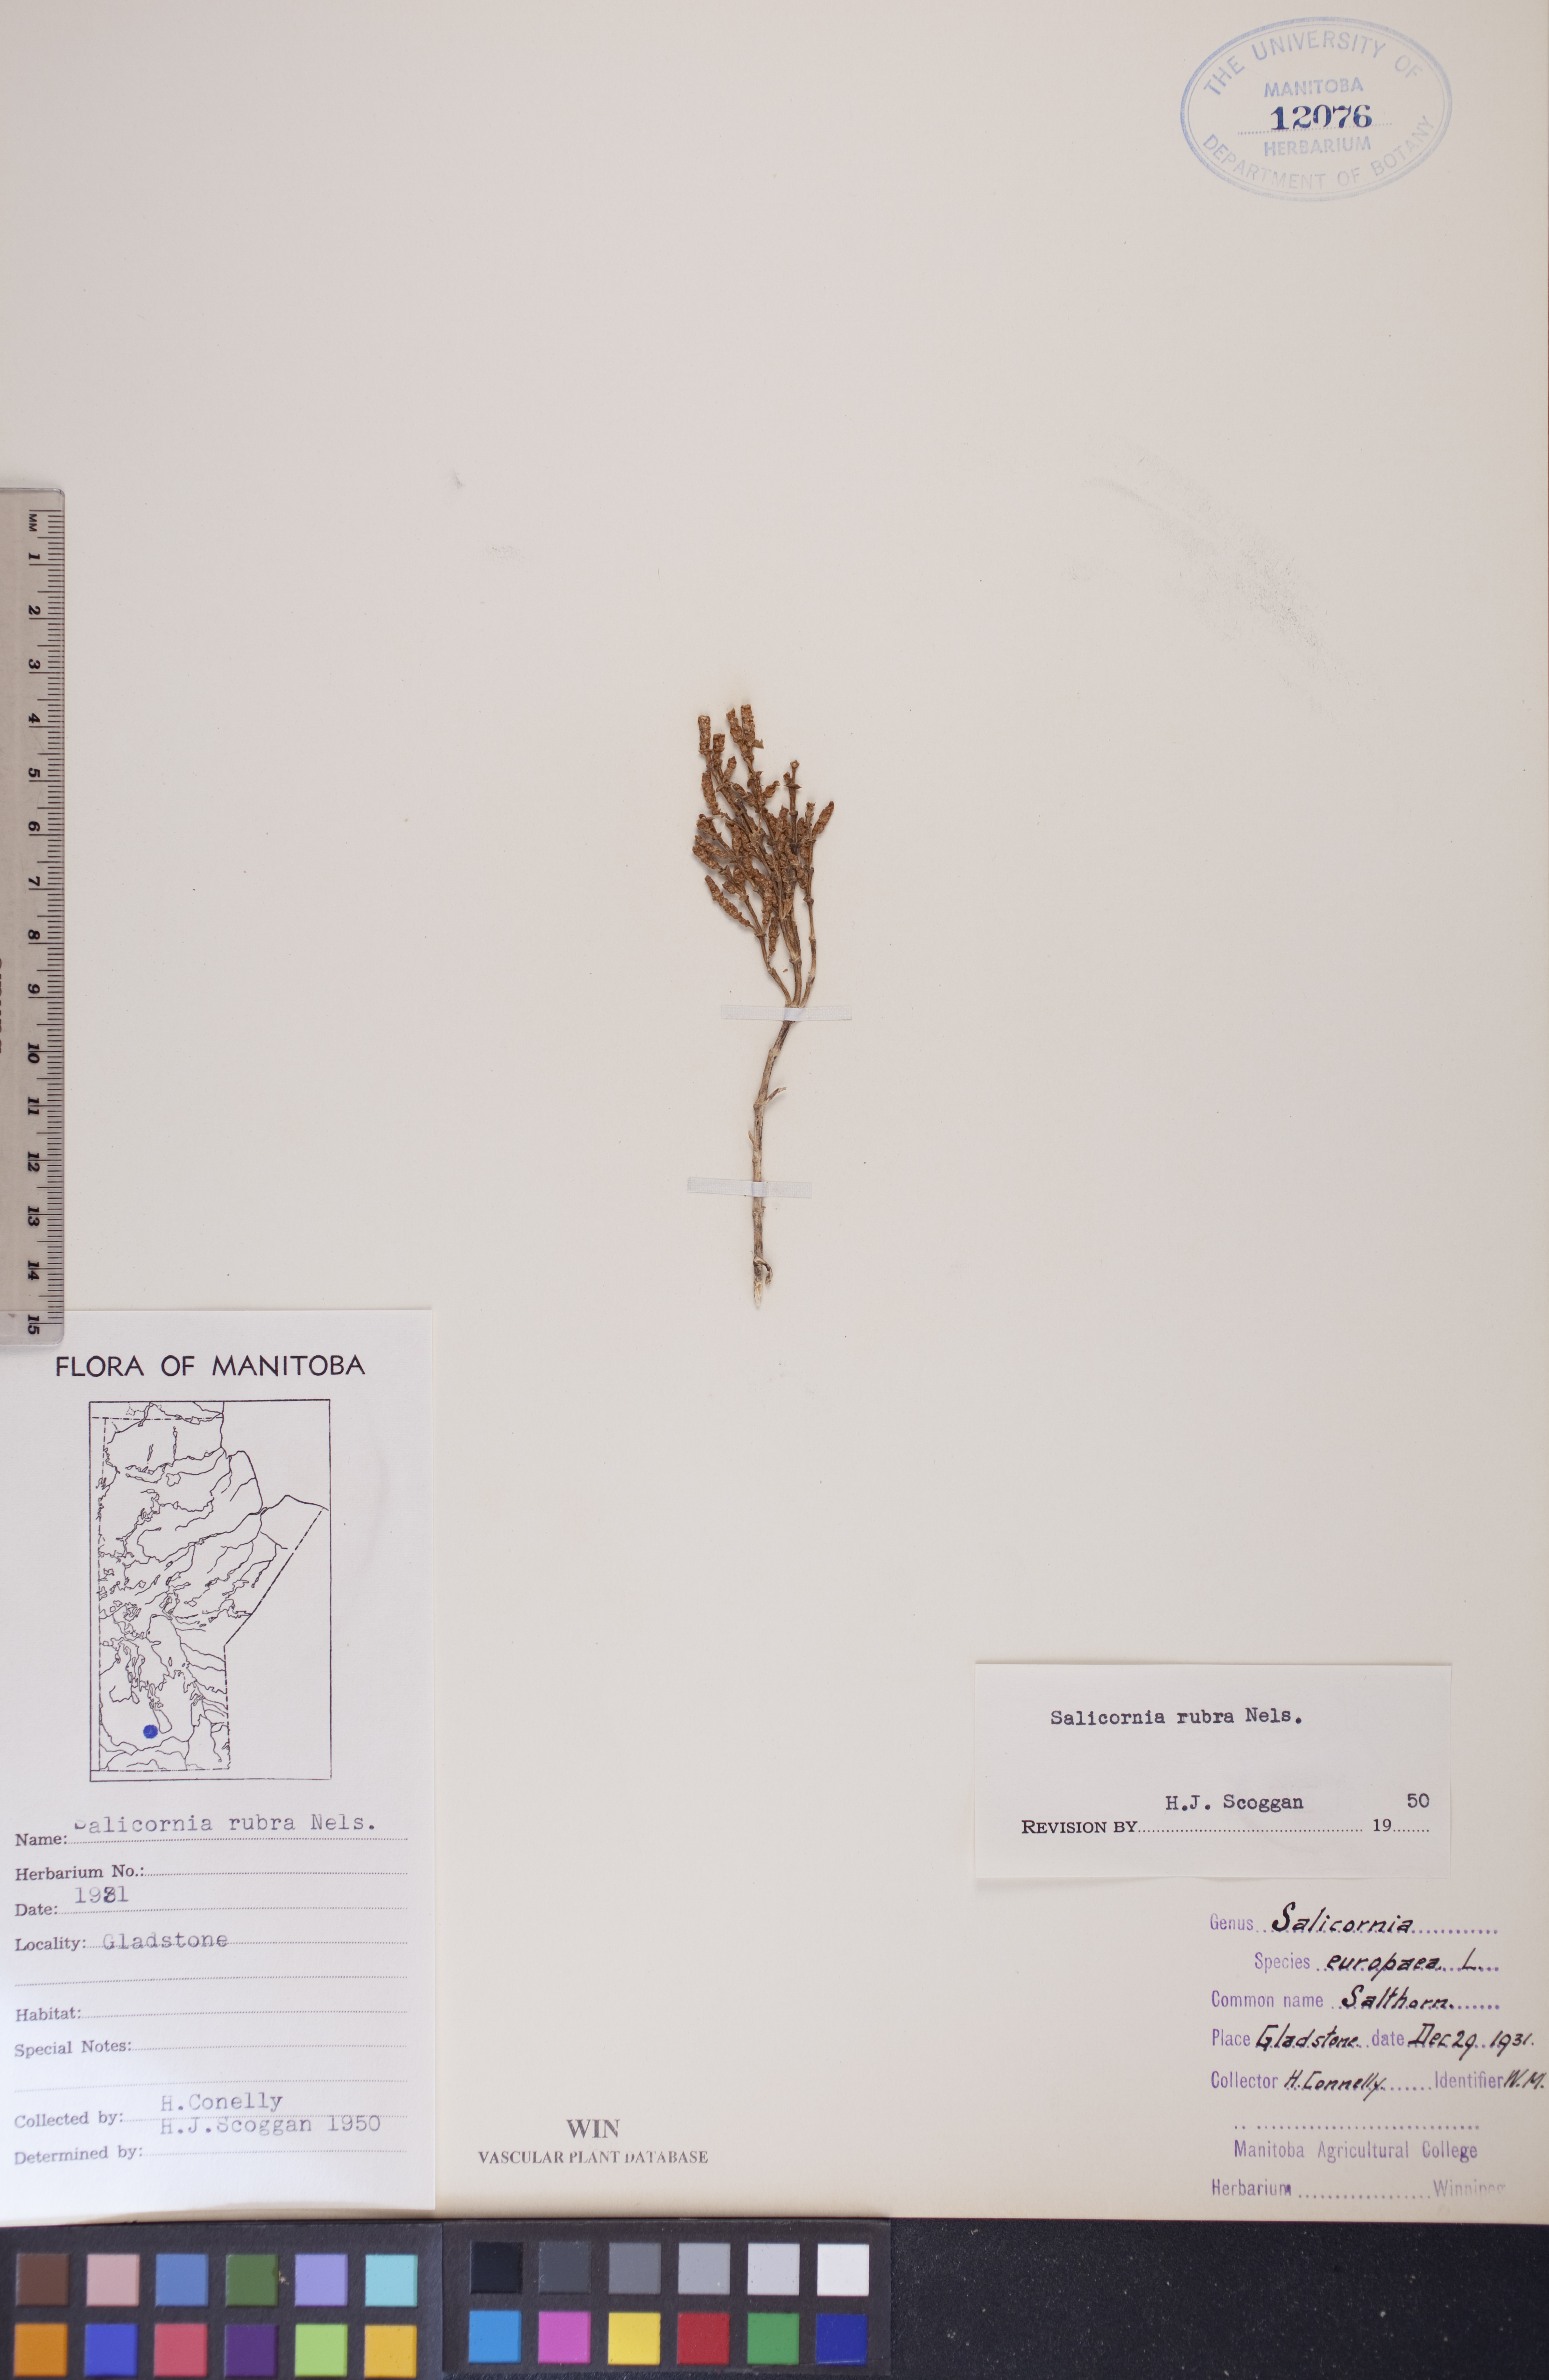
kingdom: Plantae
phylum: Tracheophyta
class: Magnoliopsida
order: Caryophyllales
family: Amaranthaceae
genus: Salicornia
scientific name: Salicornia rubra
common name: Red glasswort
